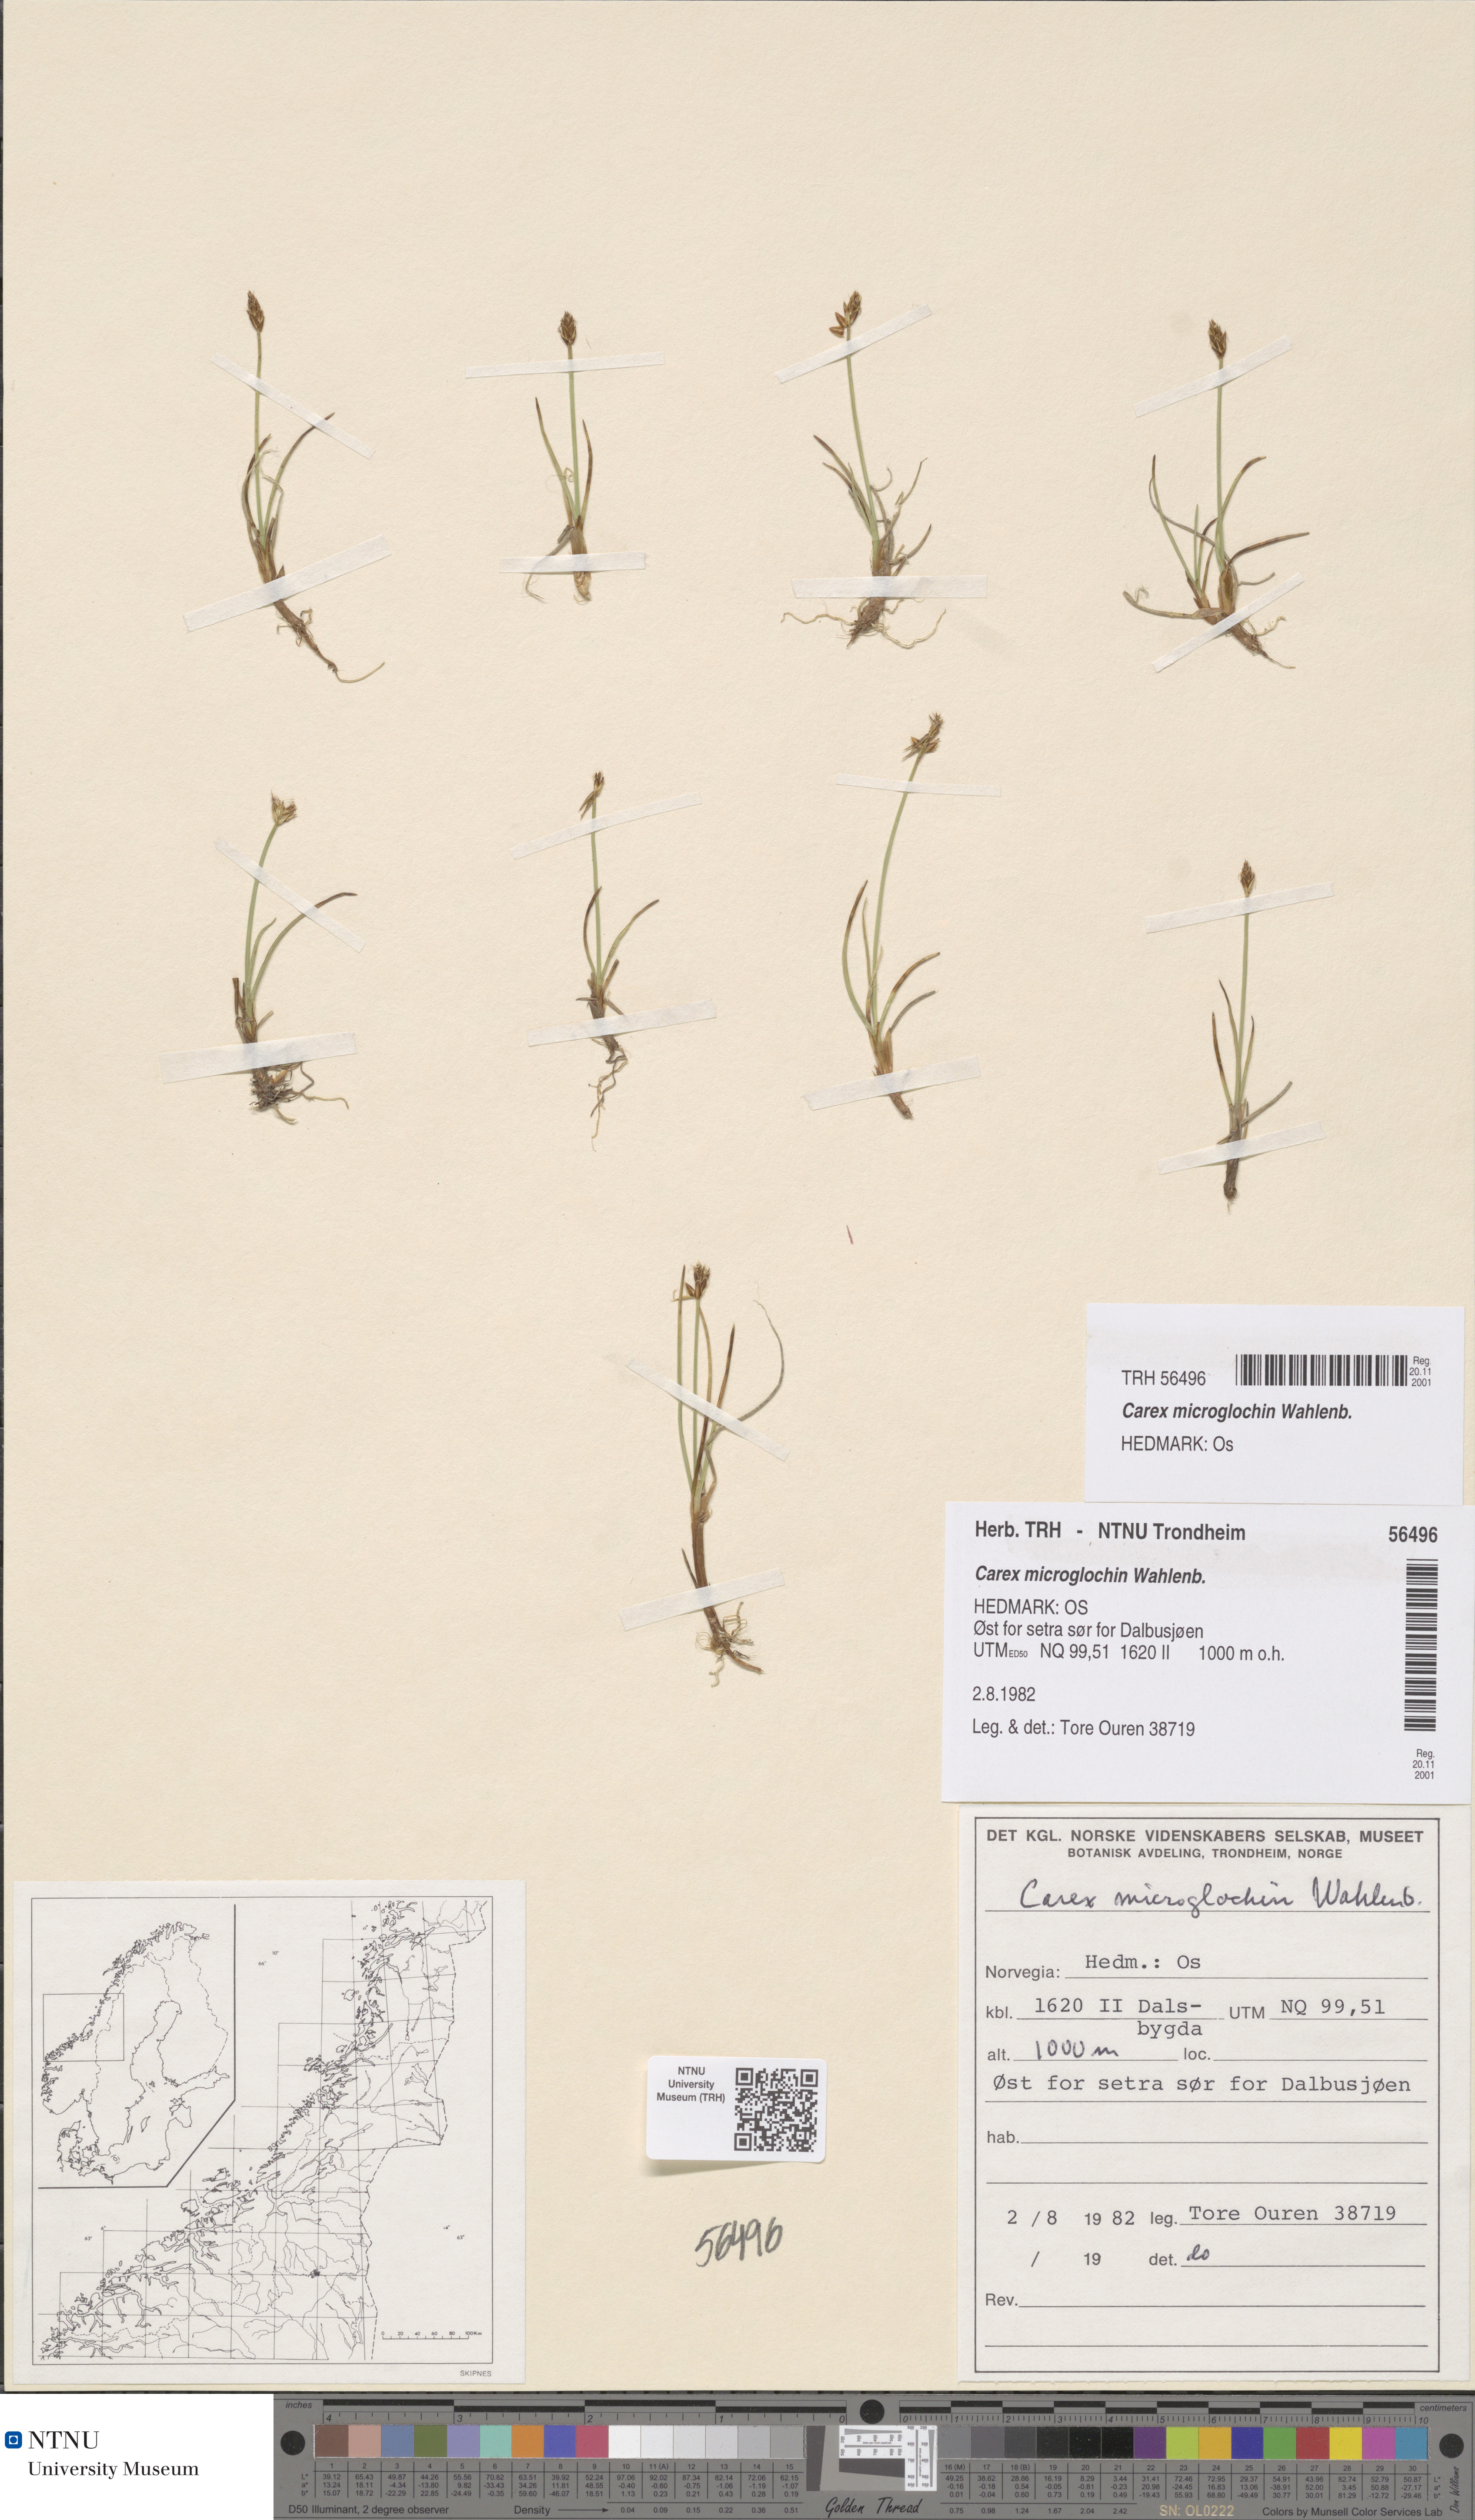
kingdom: Plantae
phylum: Tracheophyta
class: Liliopsida
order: Poales
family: Cyperaceae
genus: Carex
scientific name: Carex microglochin
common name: Bristle sedge
